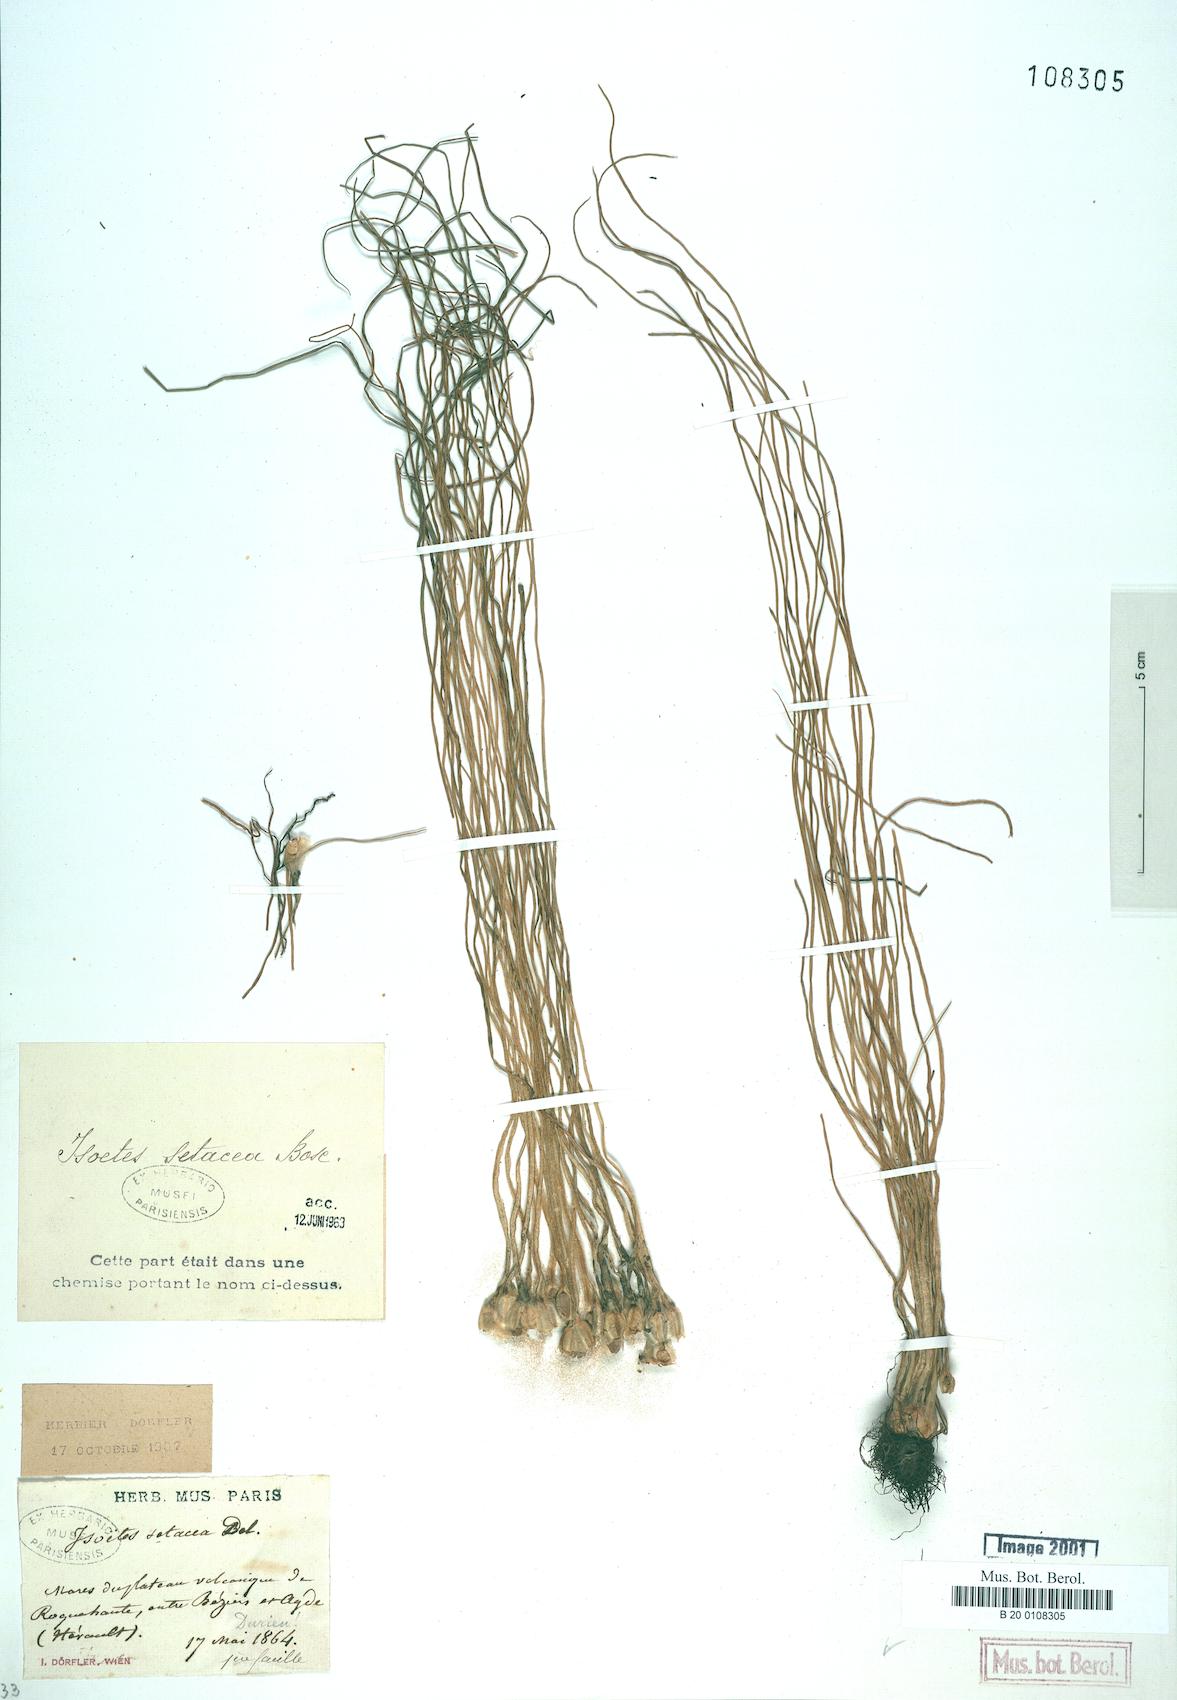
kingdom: Plantae
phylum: Tracheophyta
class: Lycopodiopsida
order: Isoetales
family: Isoetaceae
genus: Isoetes
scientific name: Isoetes lacustris
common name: Common quillwort
